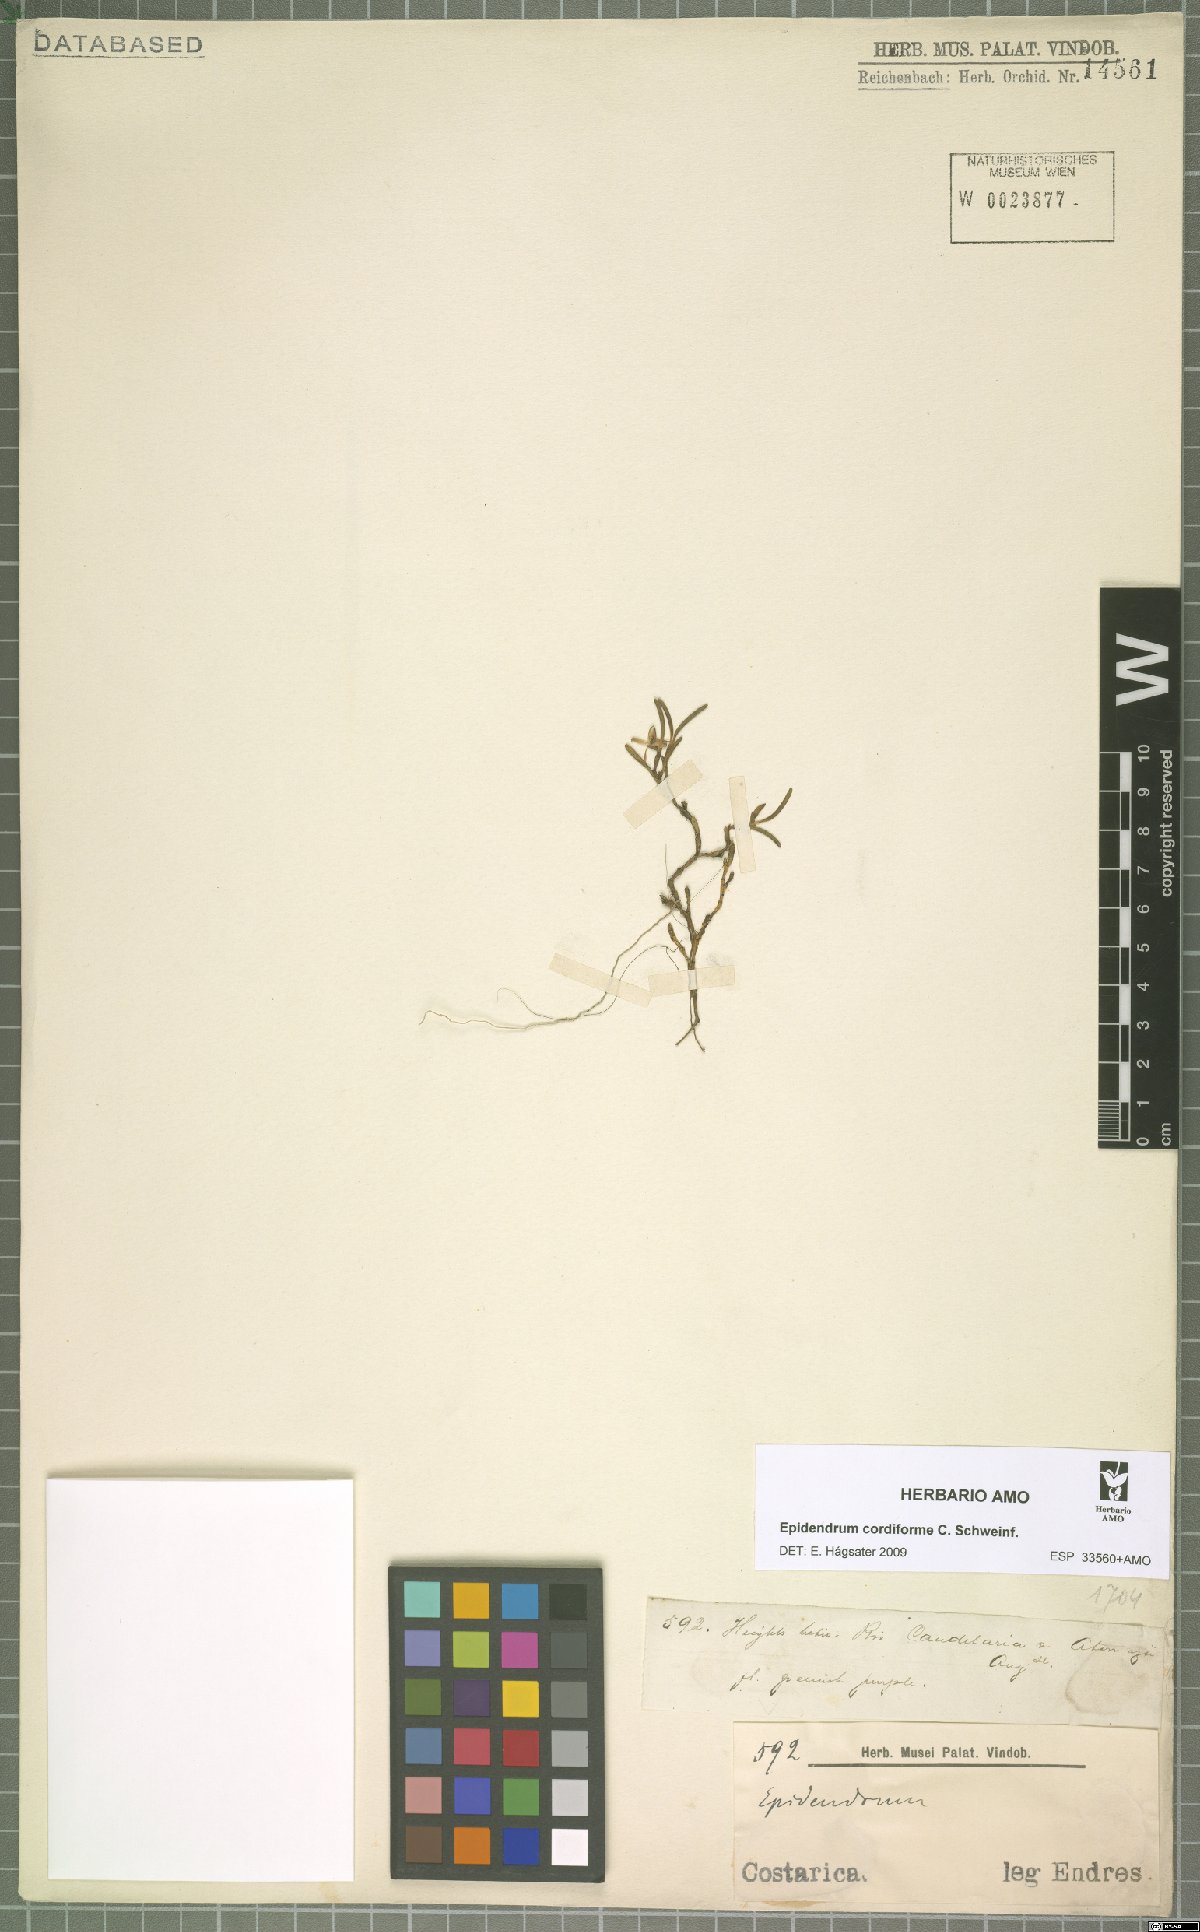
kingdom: Plantae
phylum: Tracheophyta
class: Liliopsida
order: Asparagales
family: Orchidaceae
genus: Epidendrum
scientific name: Epidendrum cordiforme
